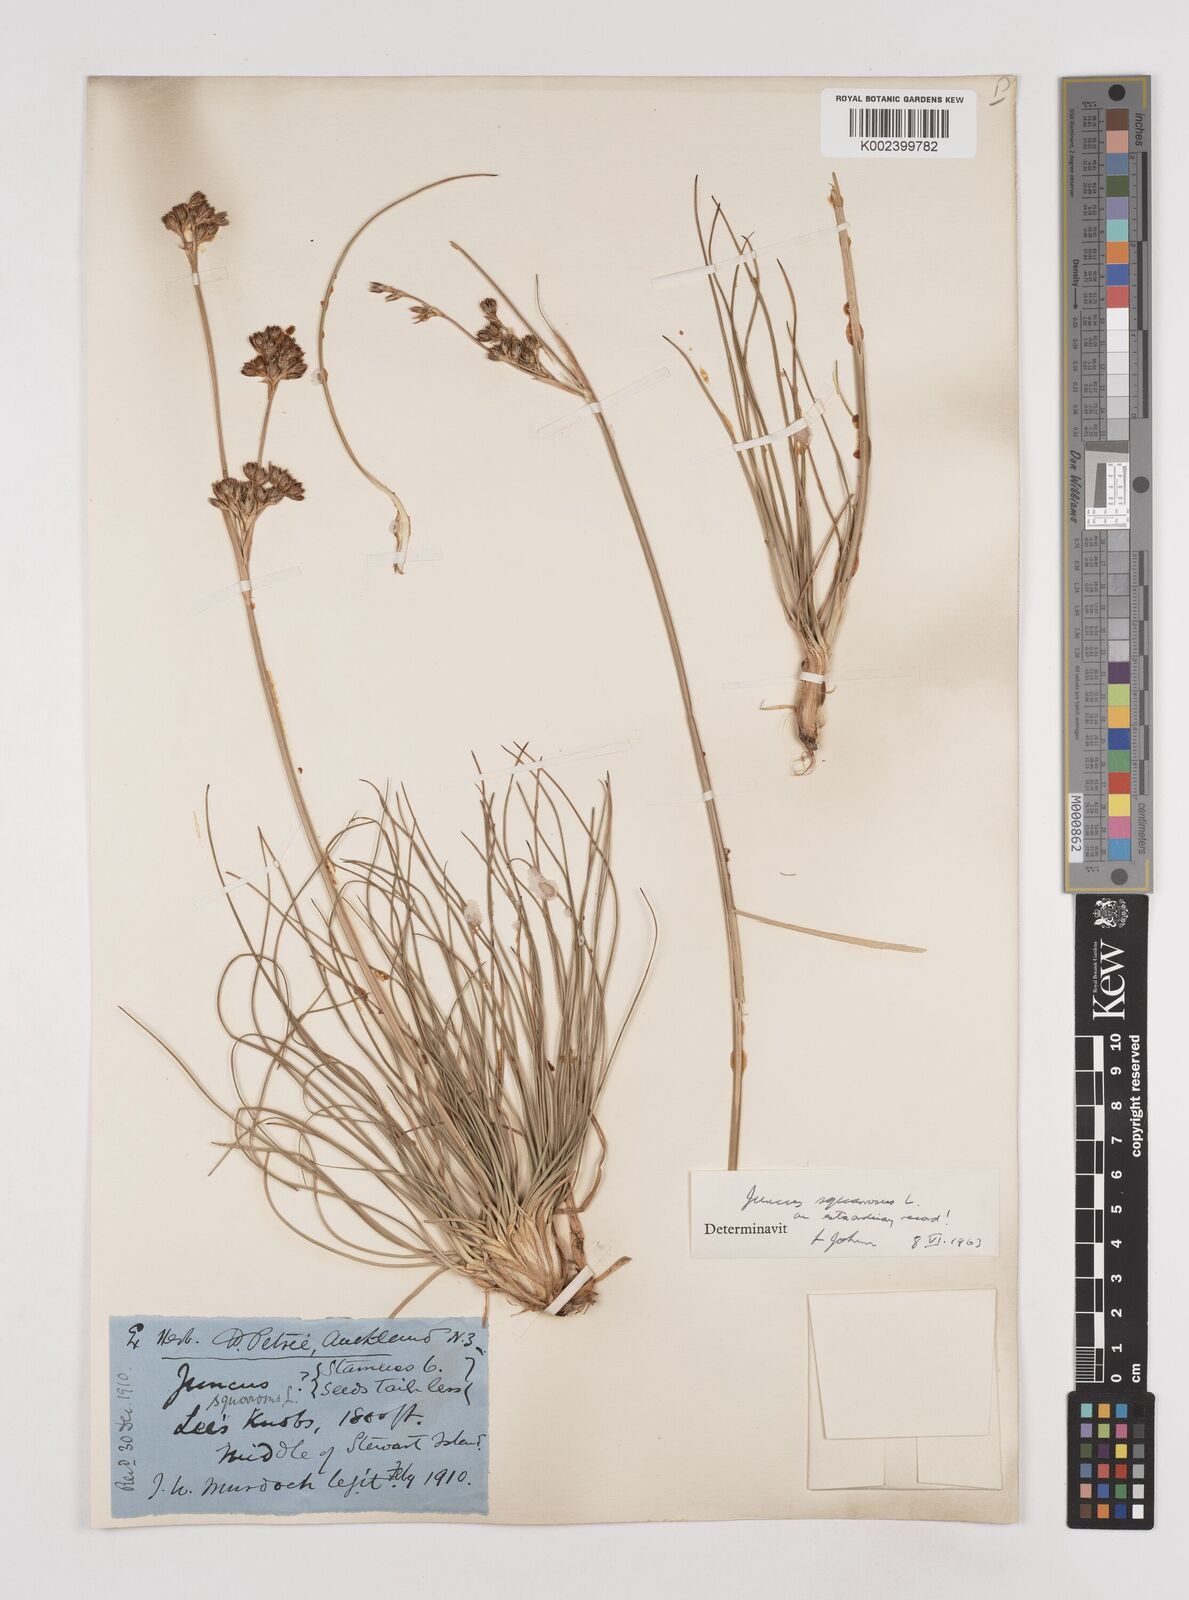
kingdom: Plantae
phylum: Tracheophyta
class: Liliopsida
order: Poales
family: Juncaceae
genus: Juncus
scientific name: Juncus squarrosus
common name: Heath rush
